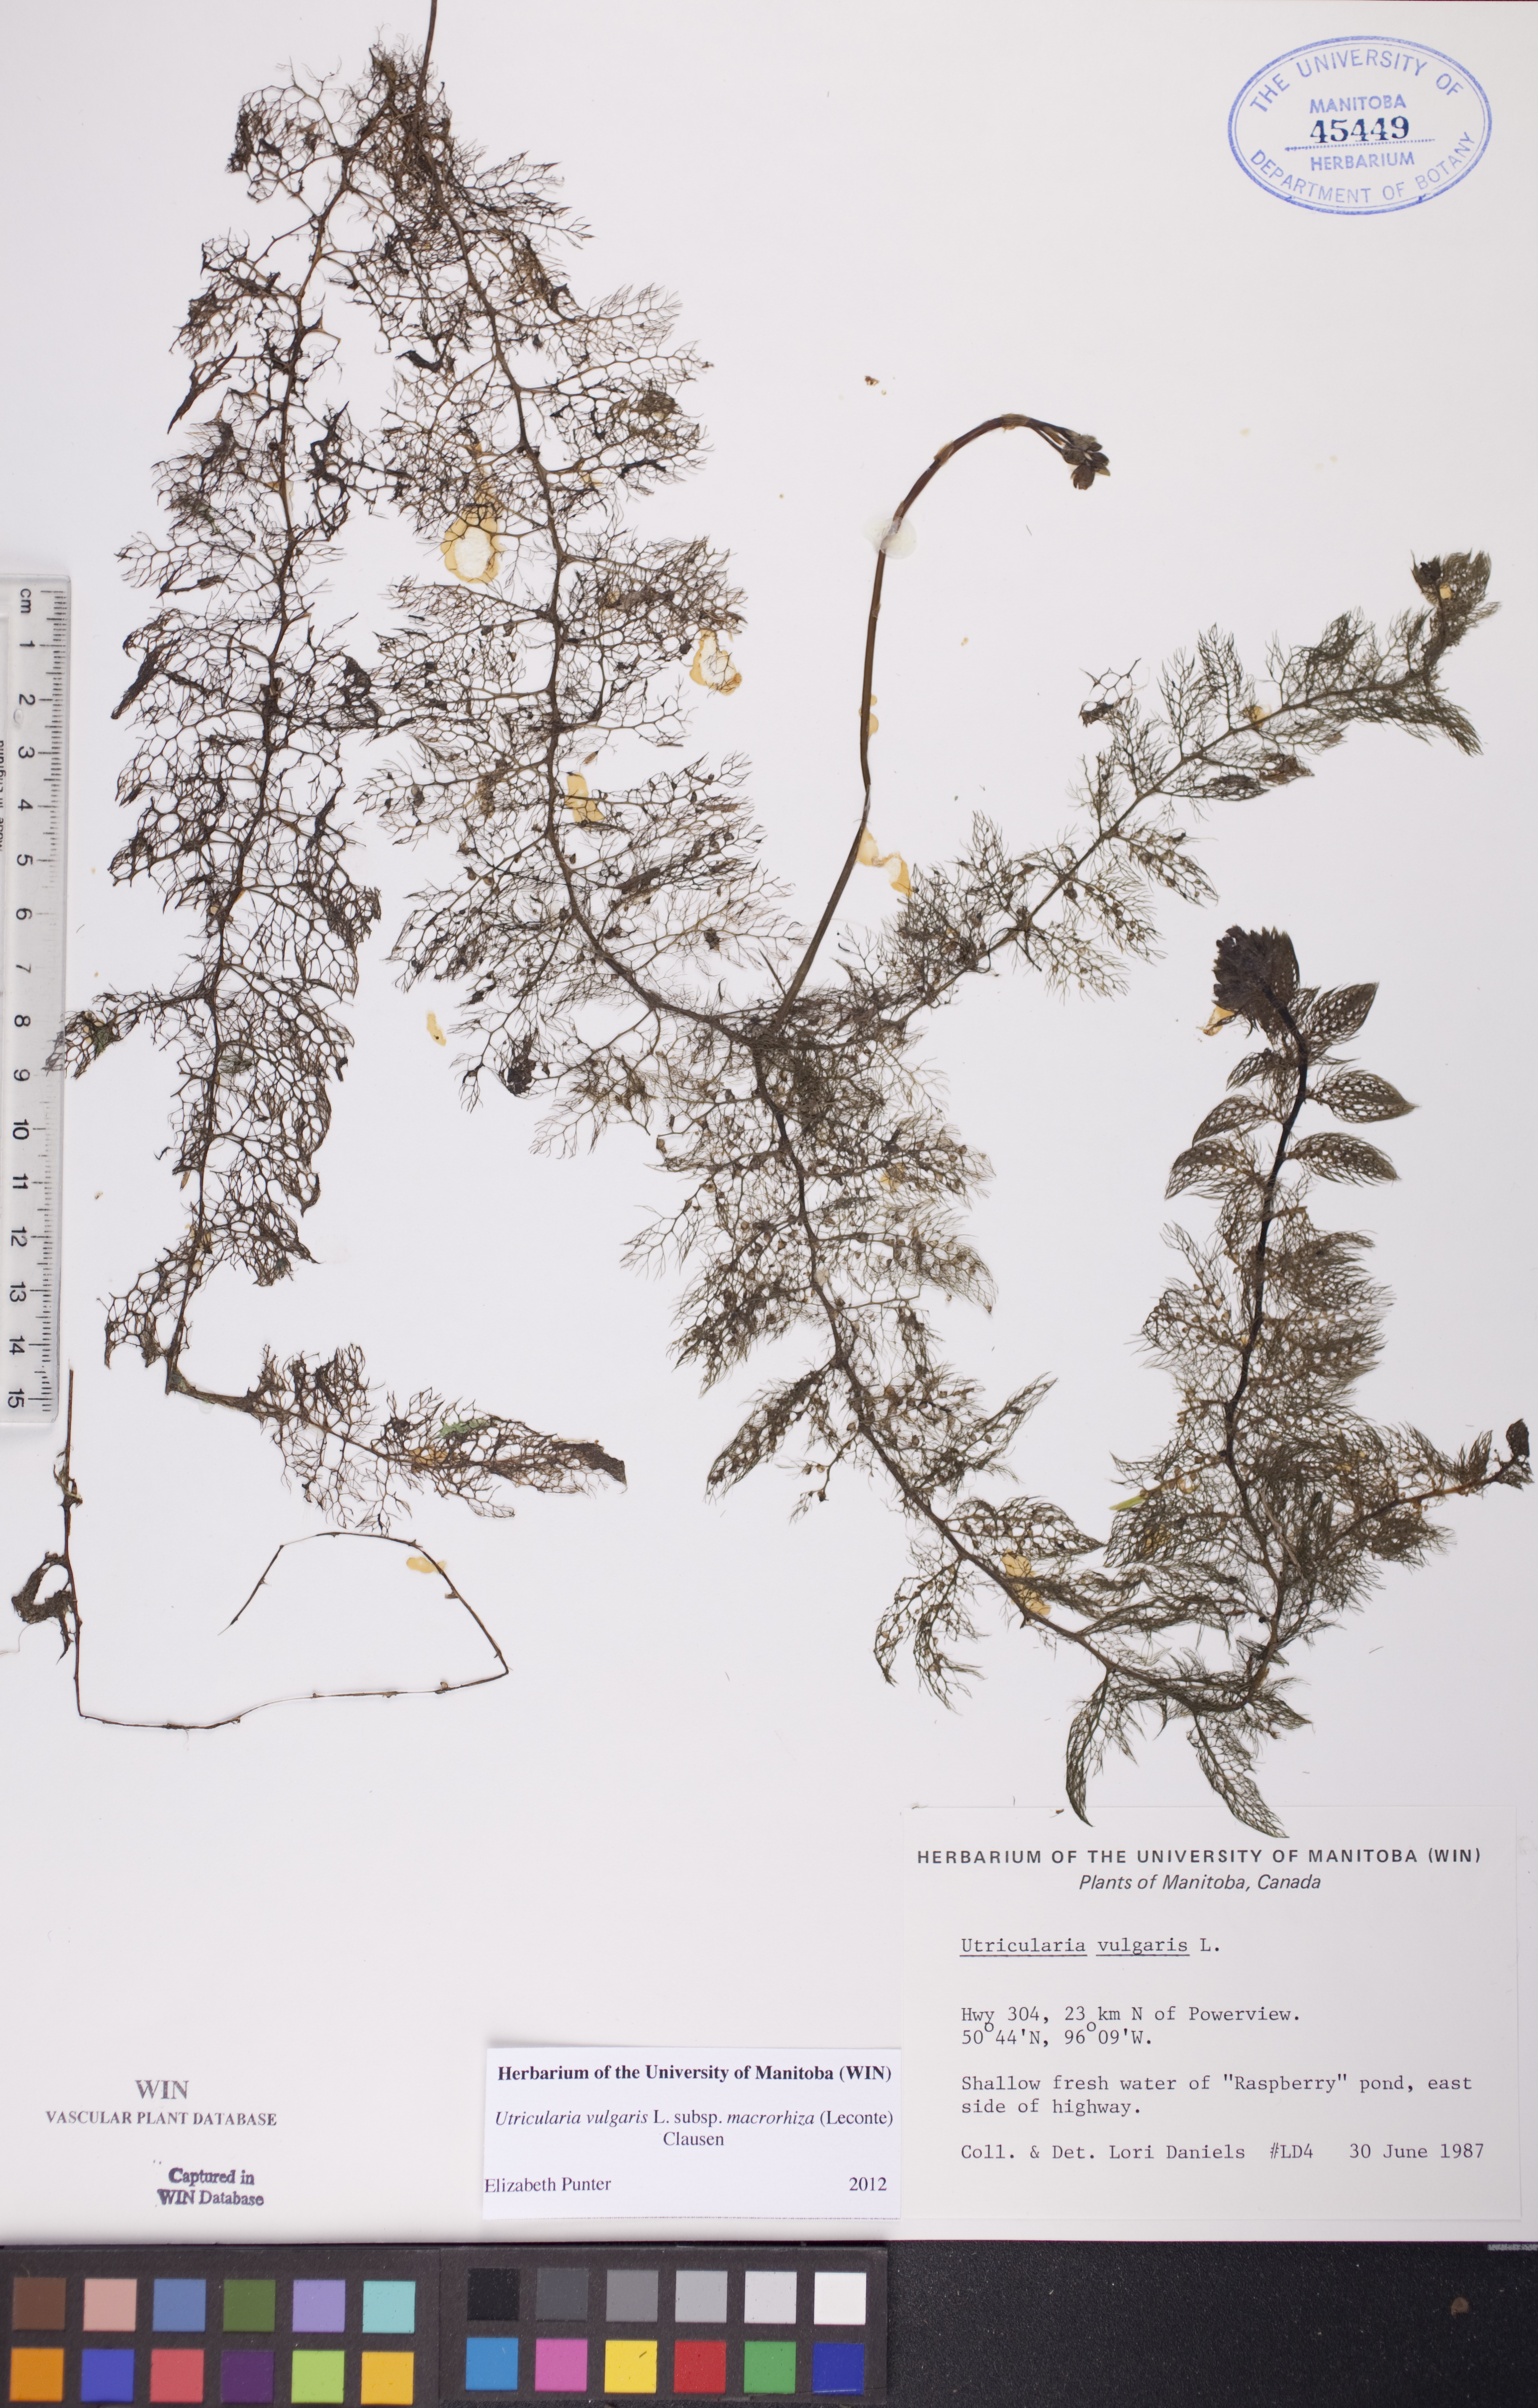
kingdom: Plantae
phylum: Tracheophyta
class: Magnoliopsida
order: Lamiales
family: Lentibulariaceae
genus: Utricularia
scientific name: Utricularia macrorhiza
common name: Common bladderwort
